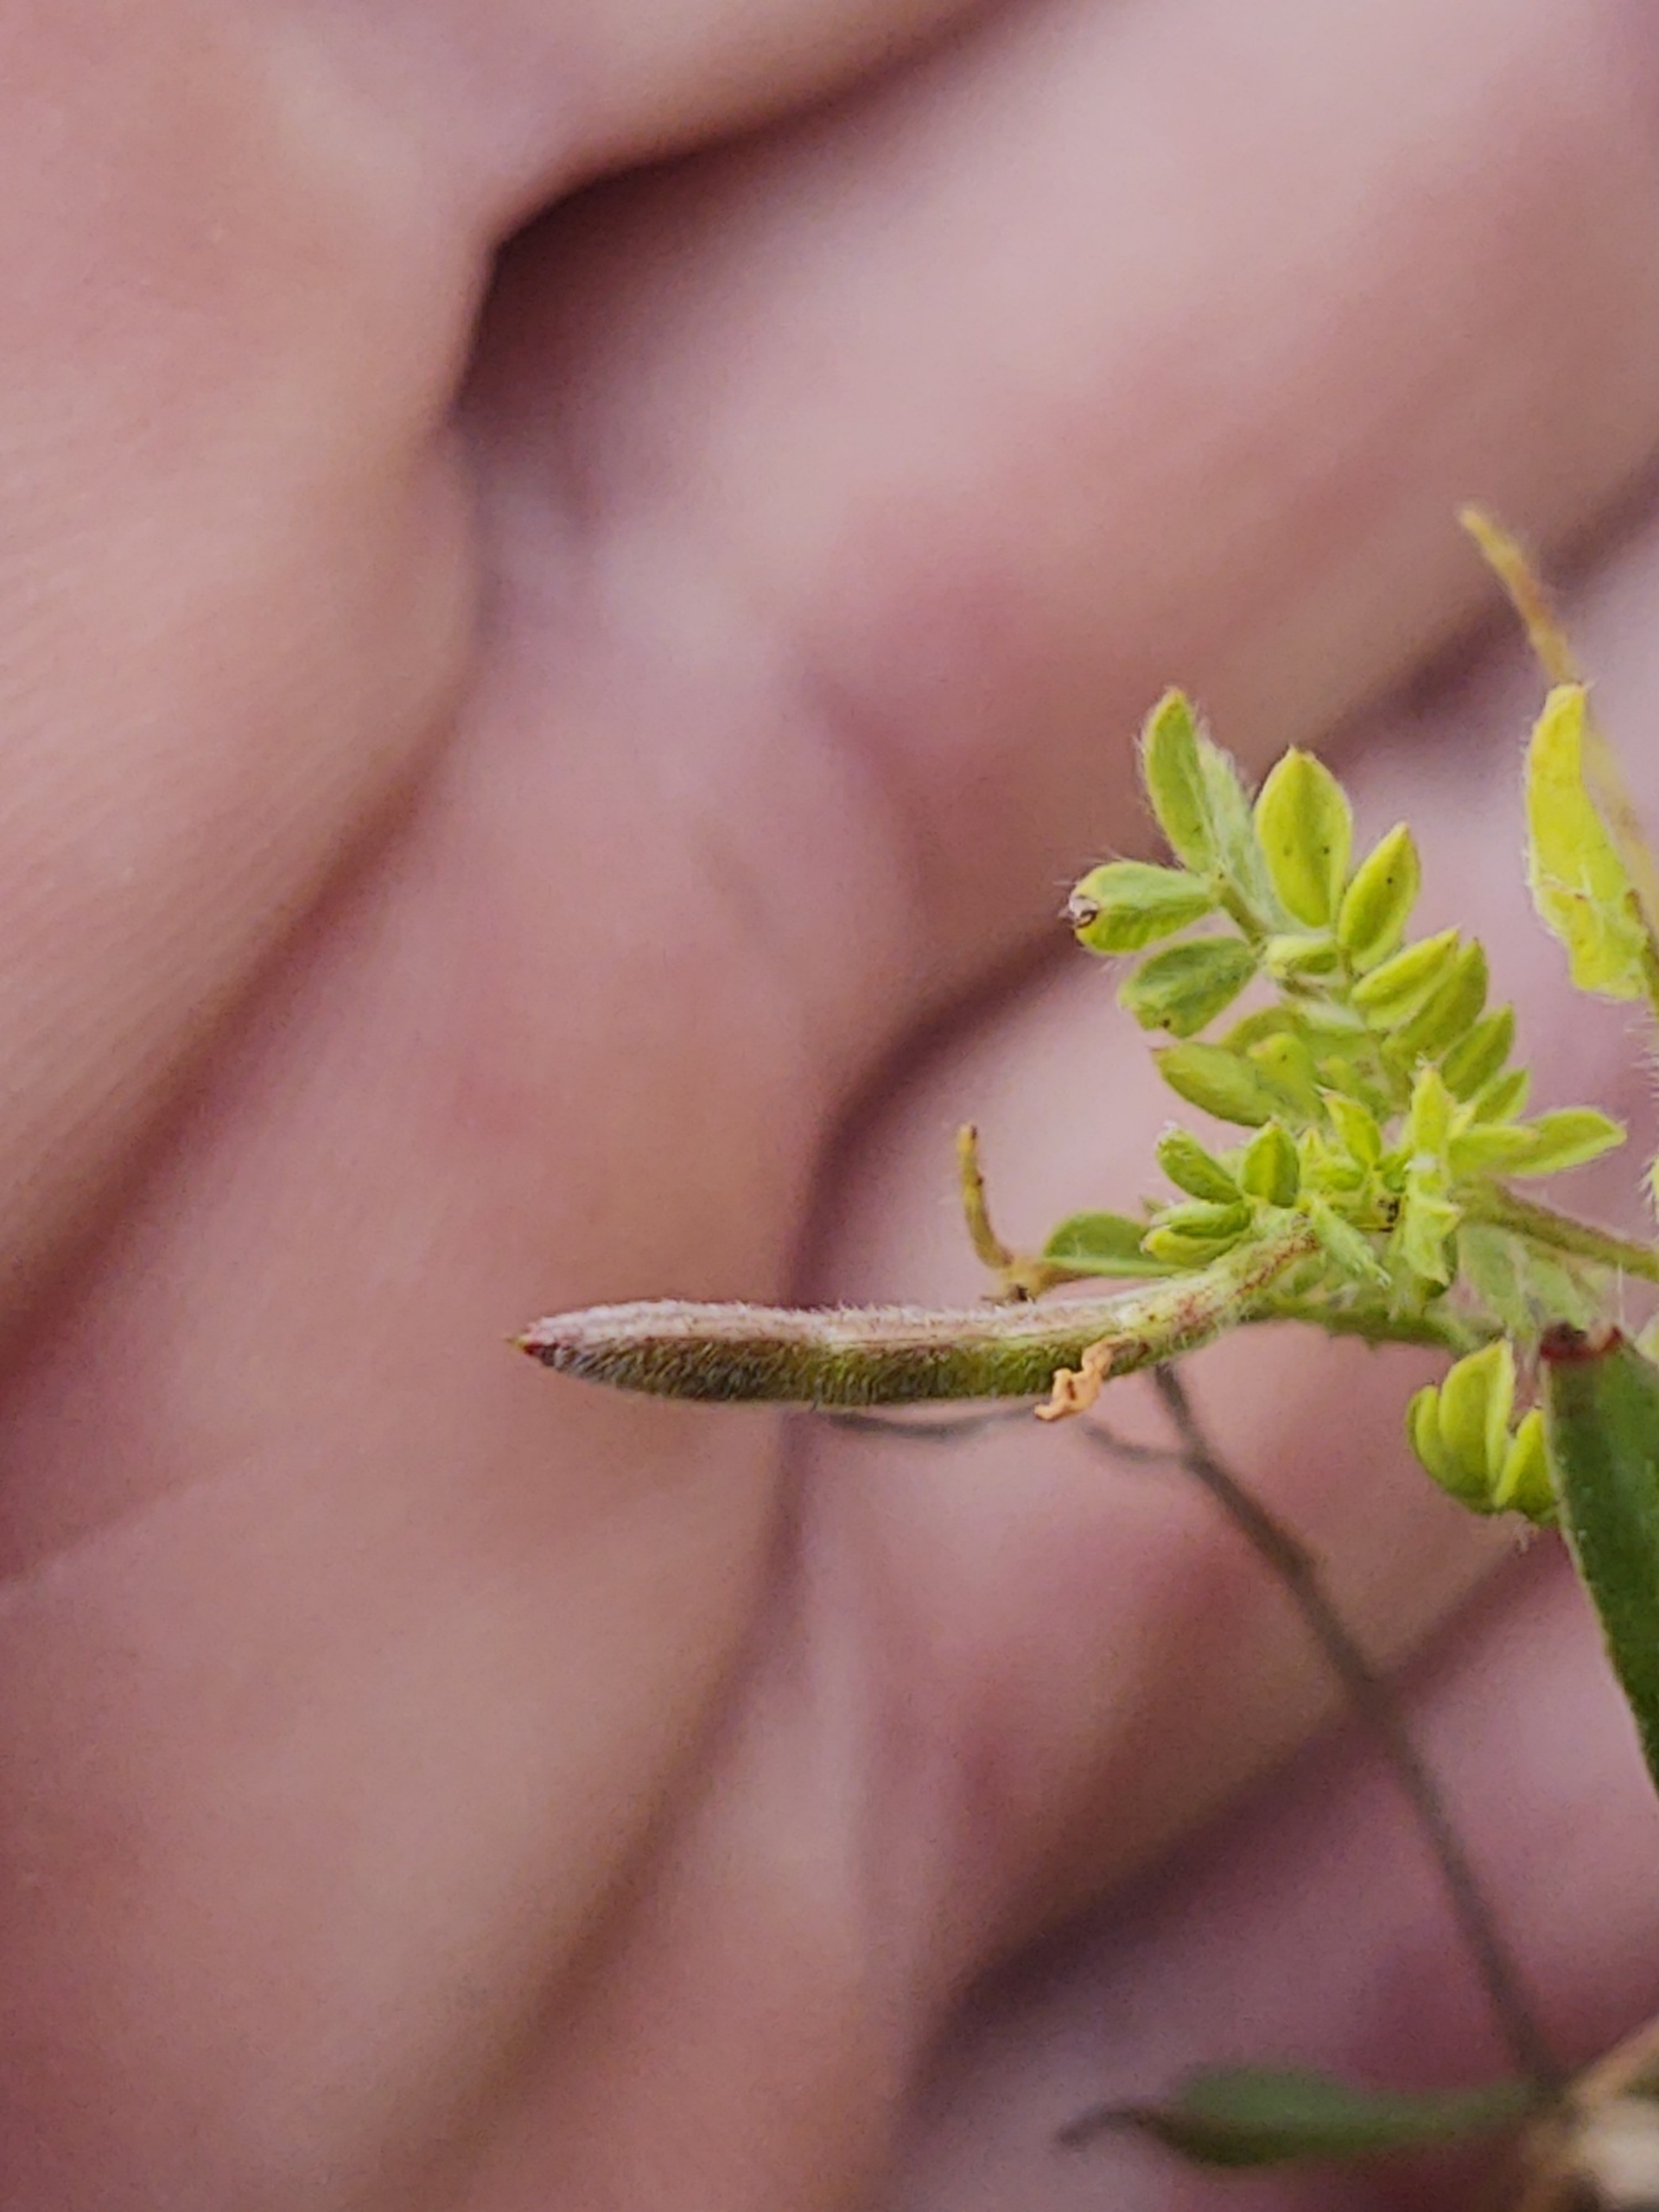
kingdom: Plantae
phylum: Tracheophyta
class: Magnoliopsida
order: Fabales
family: Fabaceae
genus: Ornithopus
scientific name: Ornithopus perpusillus
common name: Liden fugleklo
